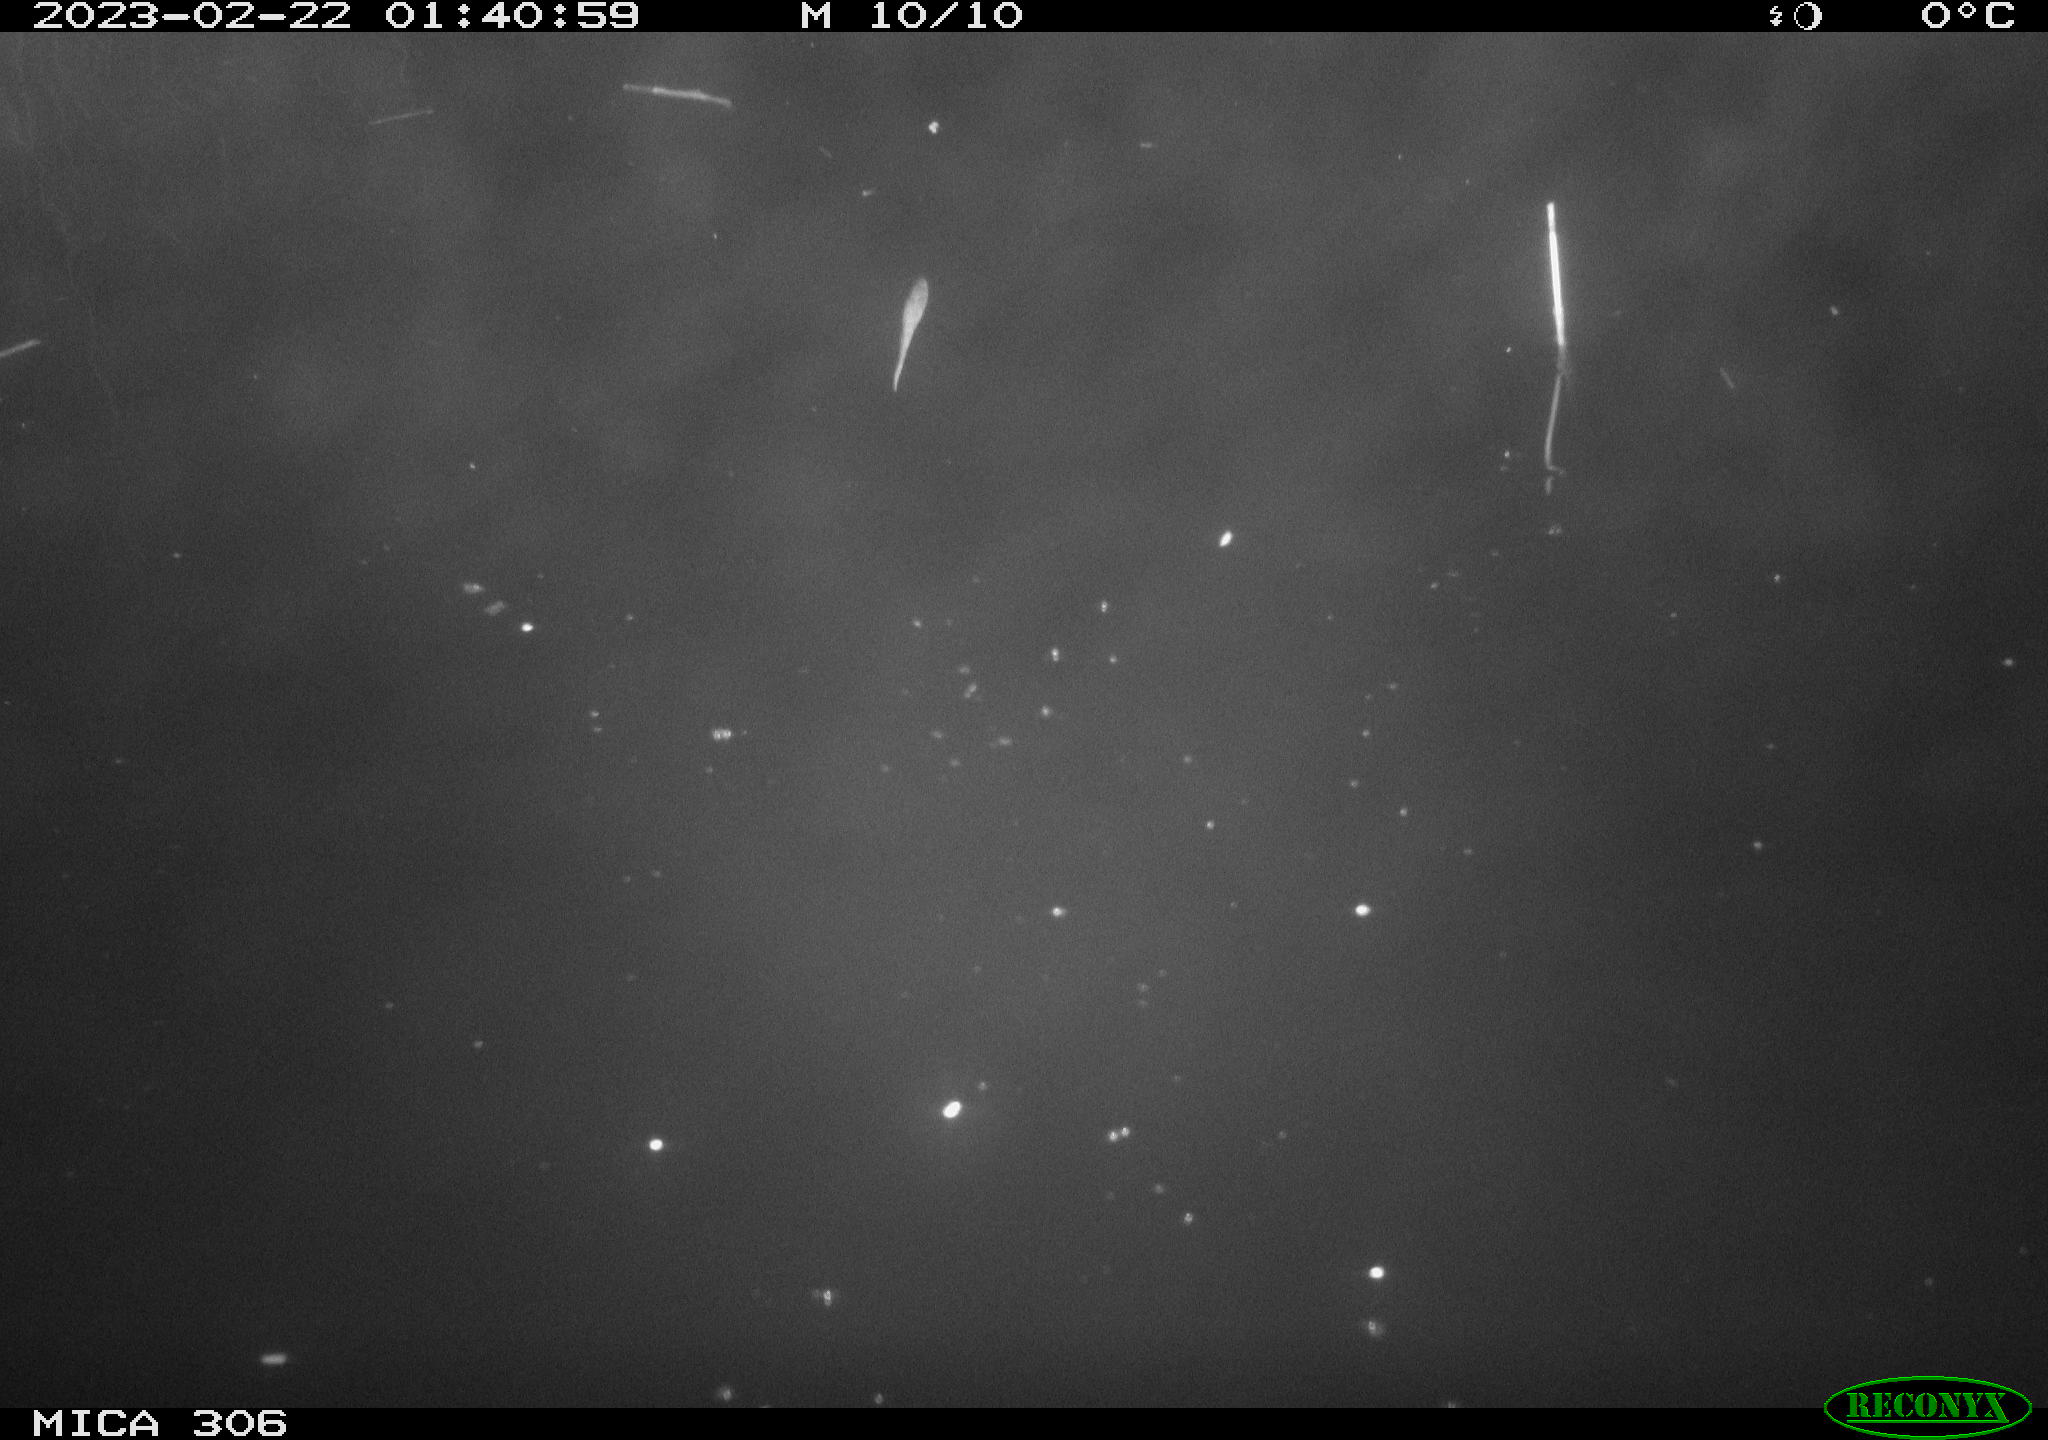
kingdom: Animalia
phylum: Chordata
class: Mammalia
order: Rodentia
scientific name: Rodentia
